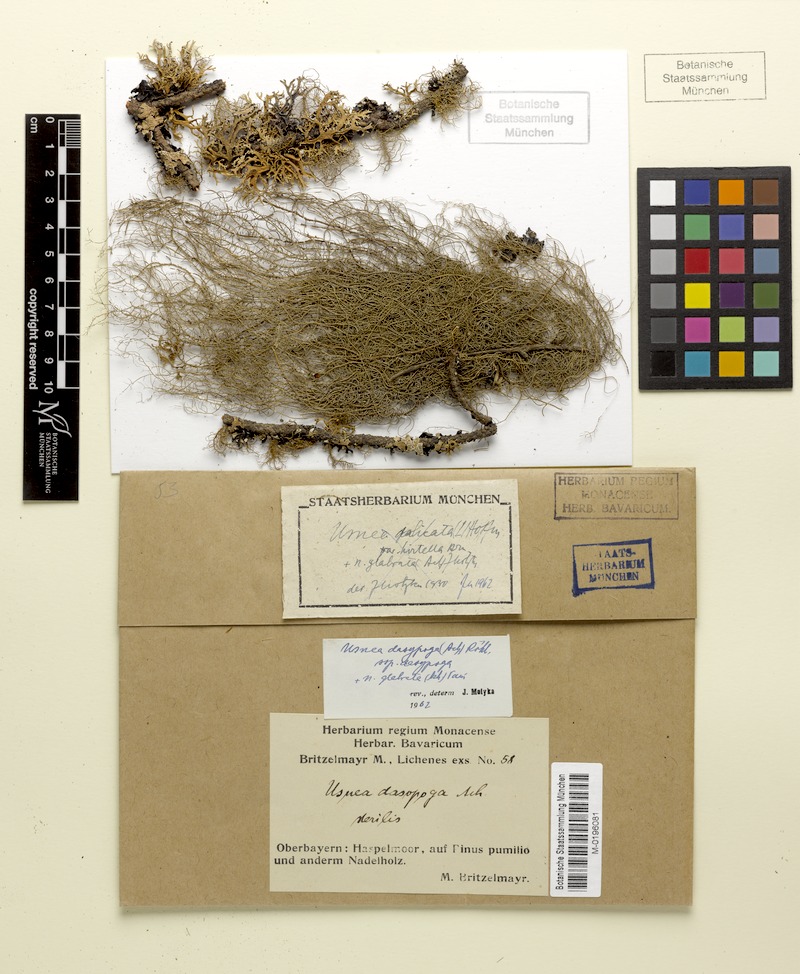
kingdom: Fungi
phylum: Ascomycota
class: Lecanoromycetes
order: Lecanorales
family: Parmeliaceae
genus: Usnea
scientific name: Usnea dasopoga
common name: Fishbone beard lichen
